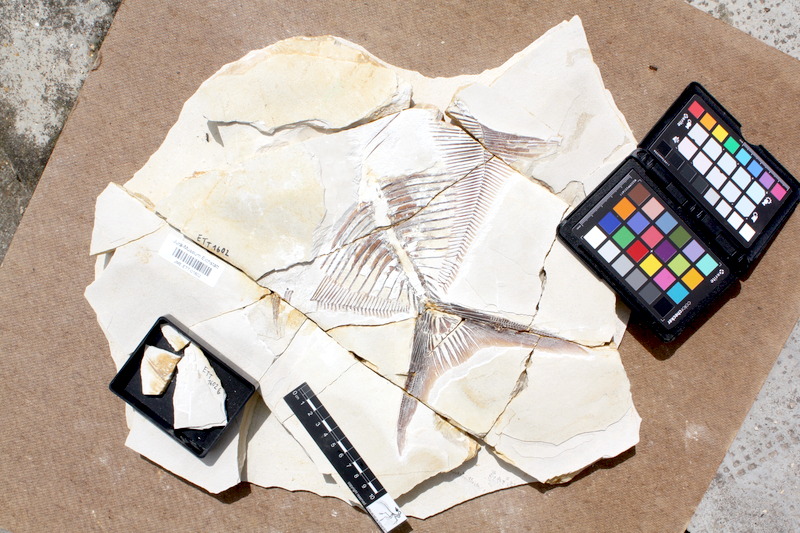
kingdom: Animalia
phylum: Chordata
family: Pycnodontidae
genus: Proscinetes
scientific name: Proscinetes elegans
